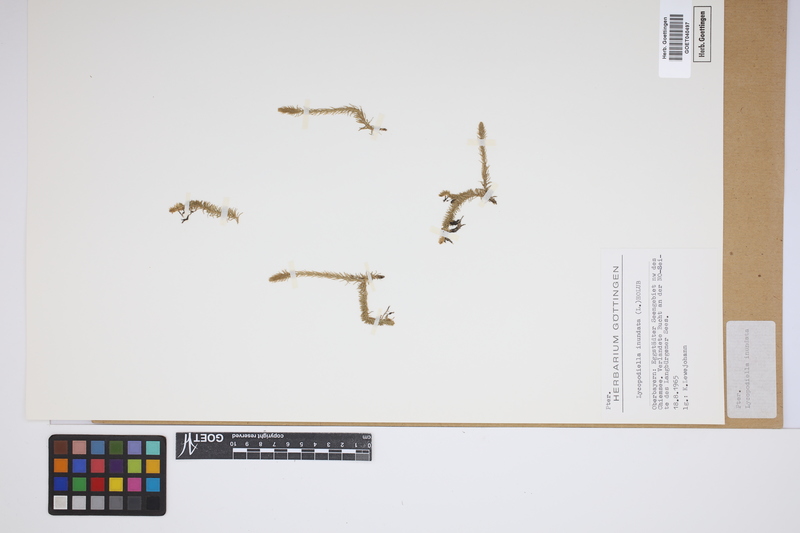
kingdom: Plantae
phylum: Tracheophyta
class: Lycopodiopsida
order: Lycopodiales
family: Lycopodiaceae
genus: Lycopodiella
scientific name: Lycopodiella inundata
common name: Marsh clubmoss
